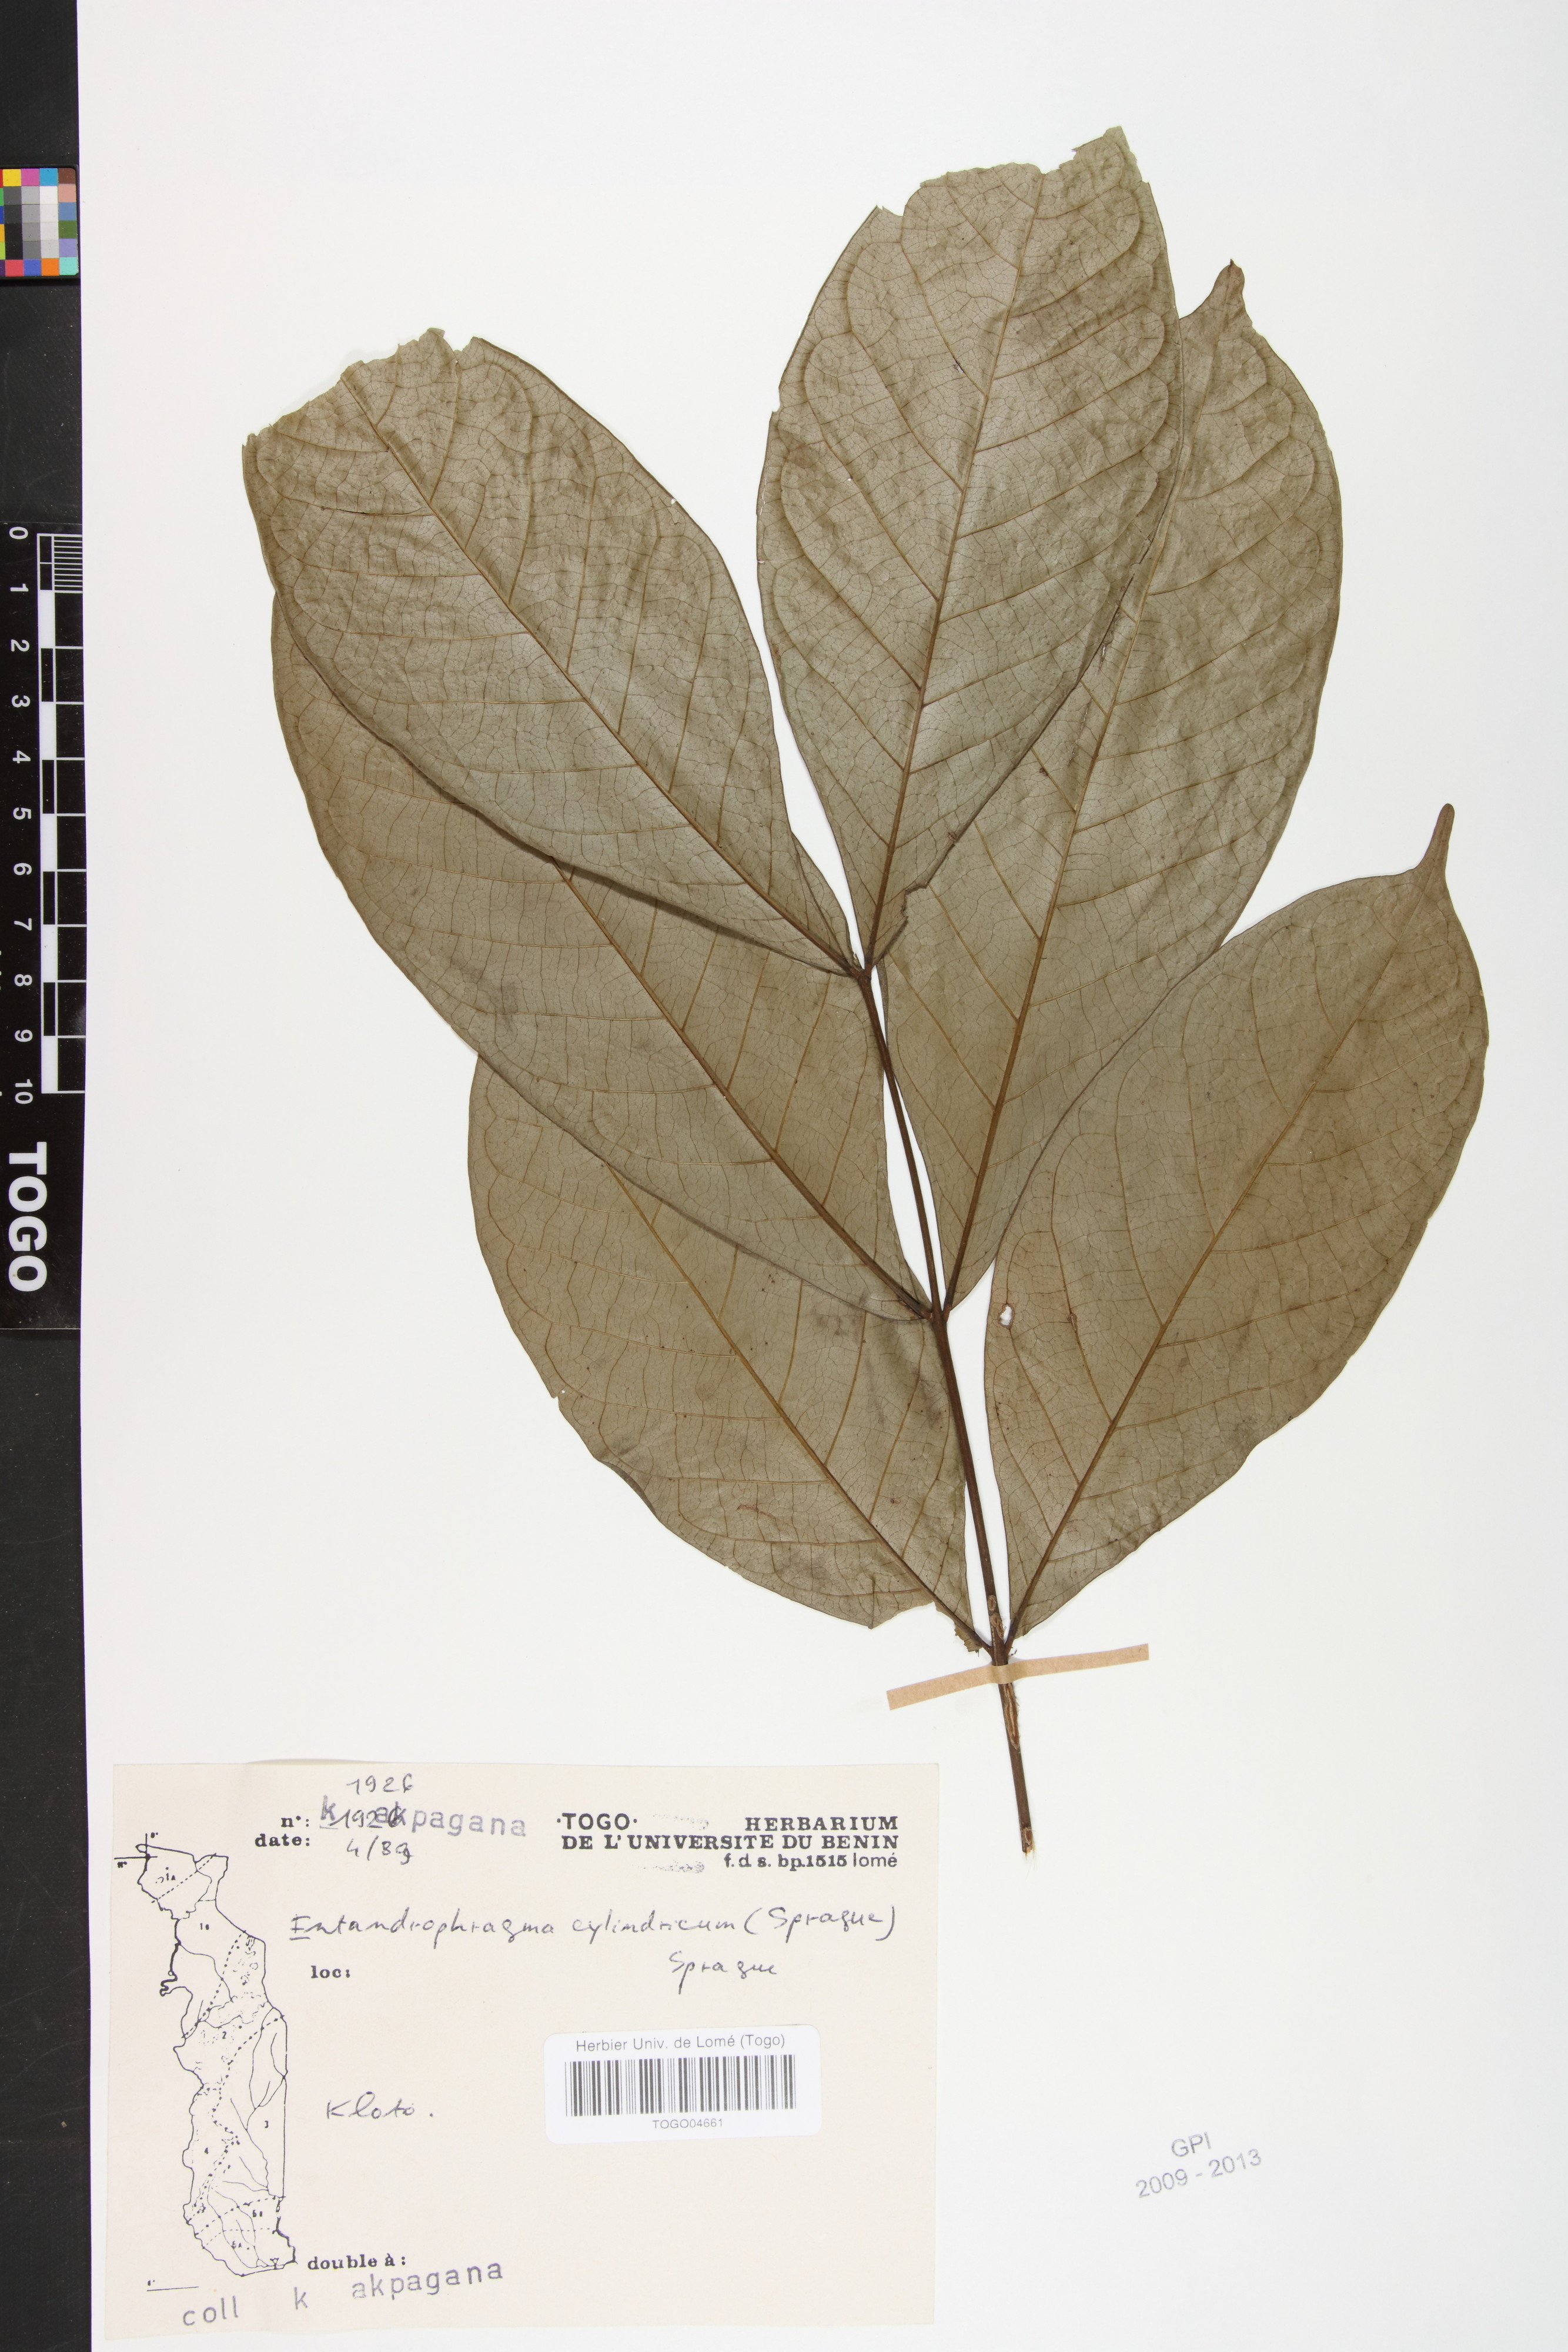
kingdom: Plantae
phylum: Tracheophyta
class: Magnoliopsida
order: Sapindales
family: Meliaceae
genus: Entandrophragma
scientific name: Entandrophragma cylindricum
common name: Sapele
